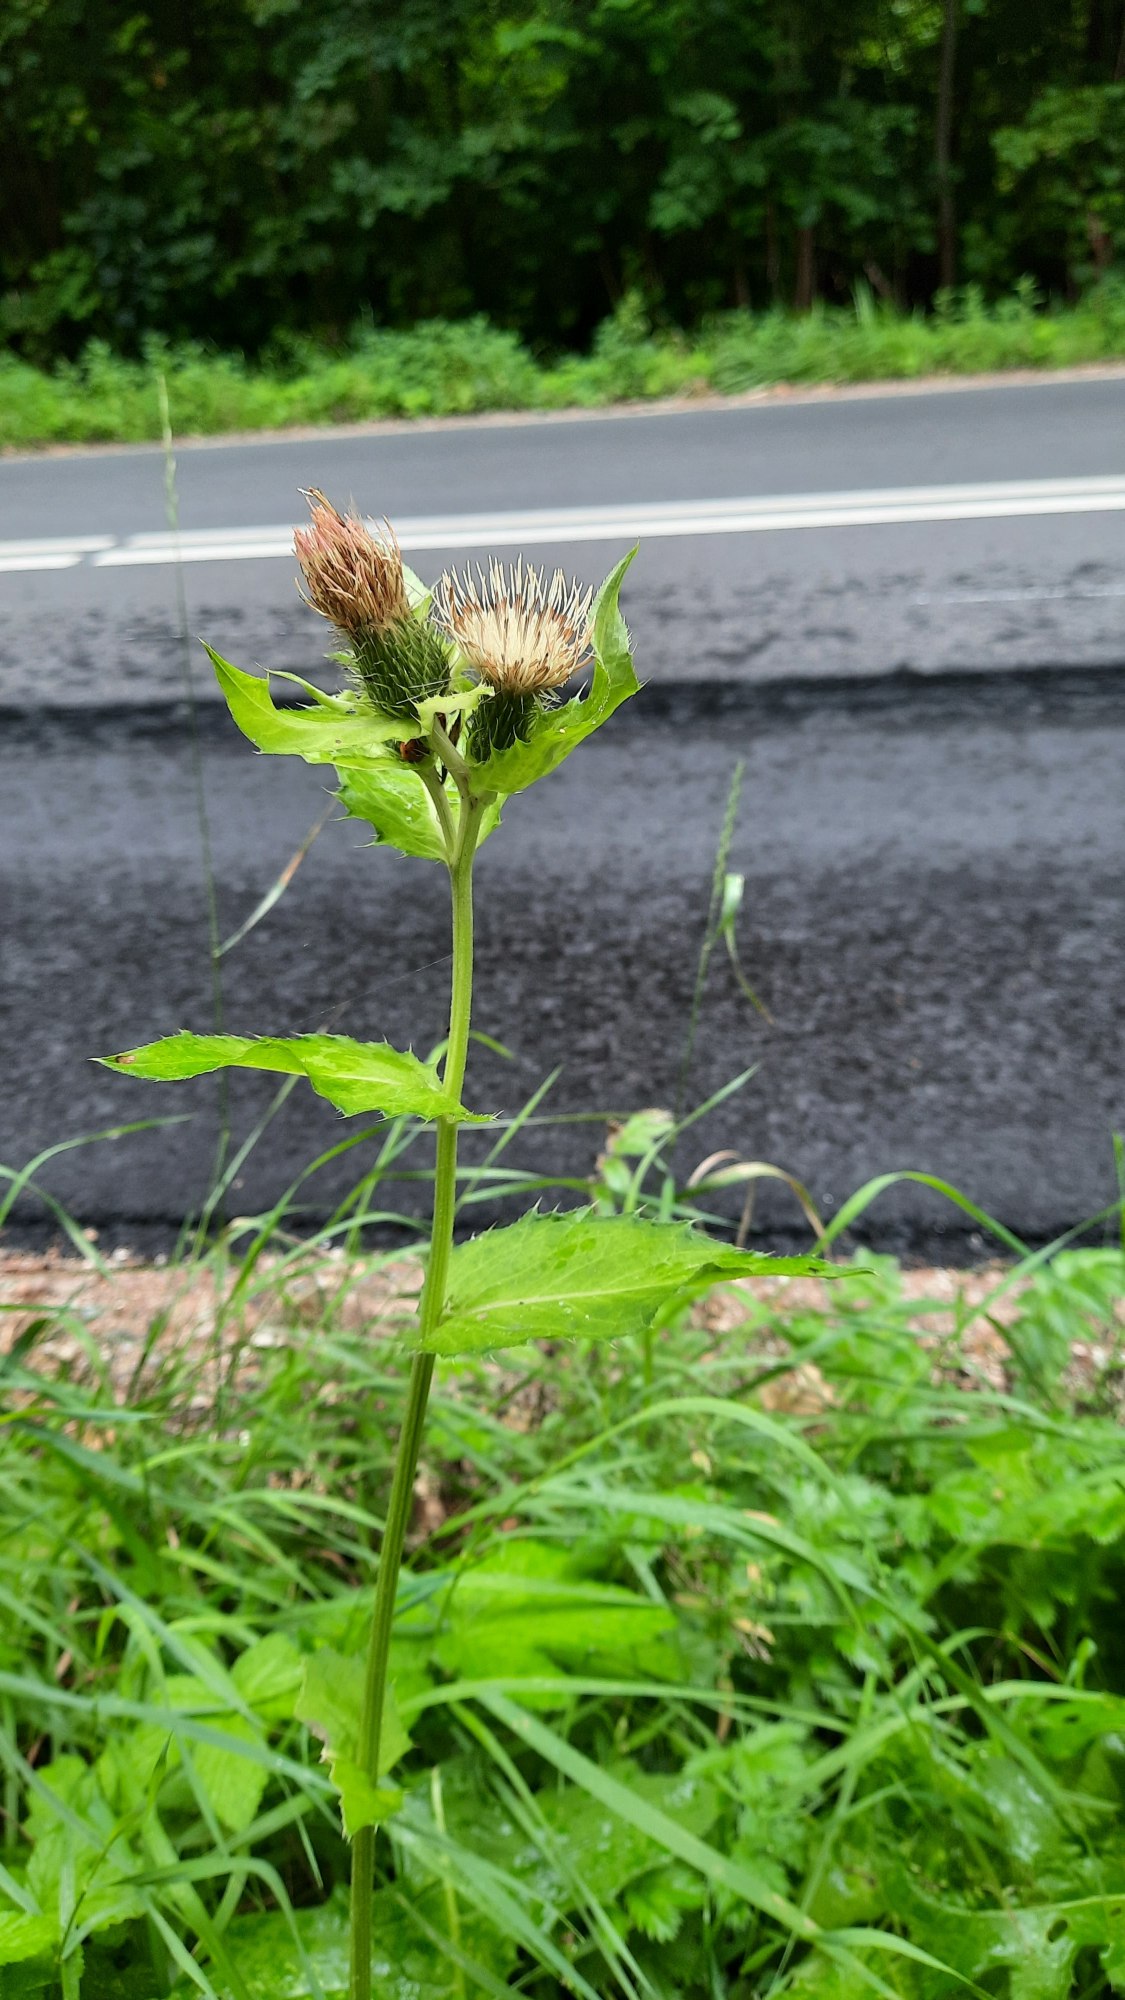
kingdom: Plantae
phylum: Tracheophyta
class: Magnoliopsida
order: Asterales
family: Asteraceae
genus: Cirsium
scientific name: Cirsium oleraceum
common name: Kål-tidsel
